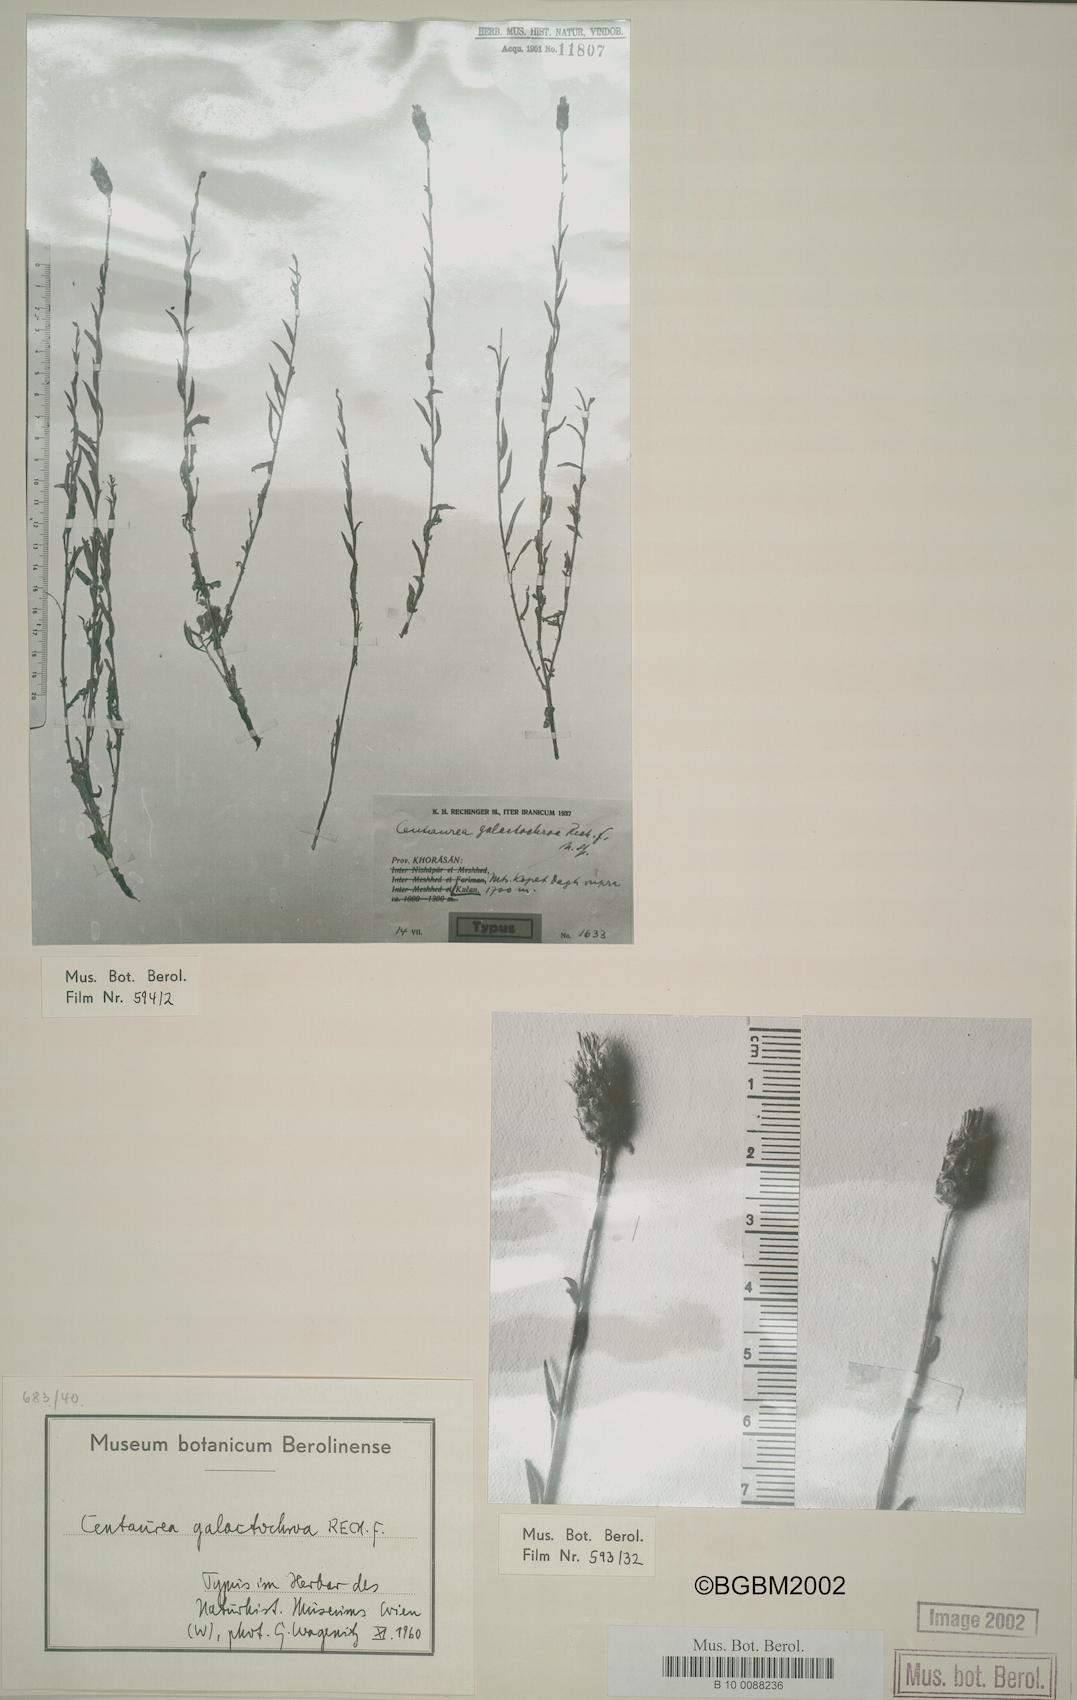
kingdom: Plantae
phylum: Tracheophyta
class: Magnoliopsida
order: Asterales
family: Asteraceae
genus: Psephellus
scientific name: Psephellus galactochroa
